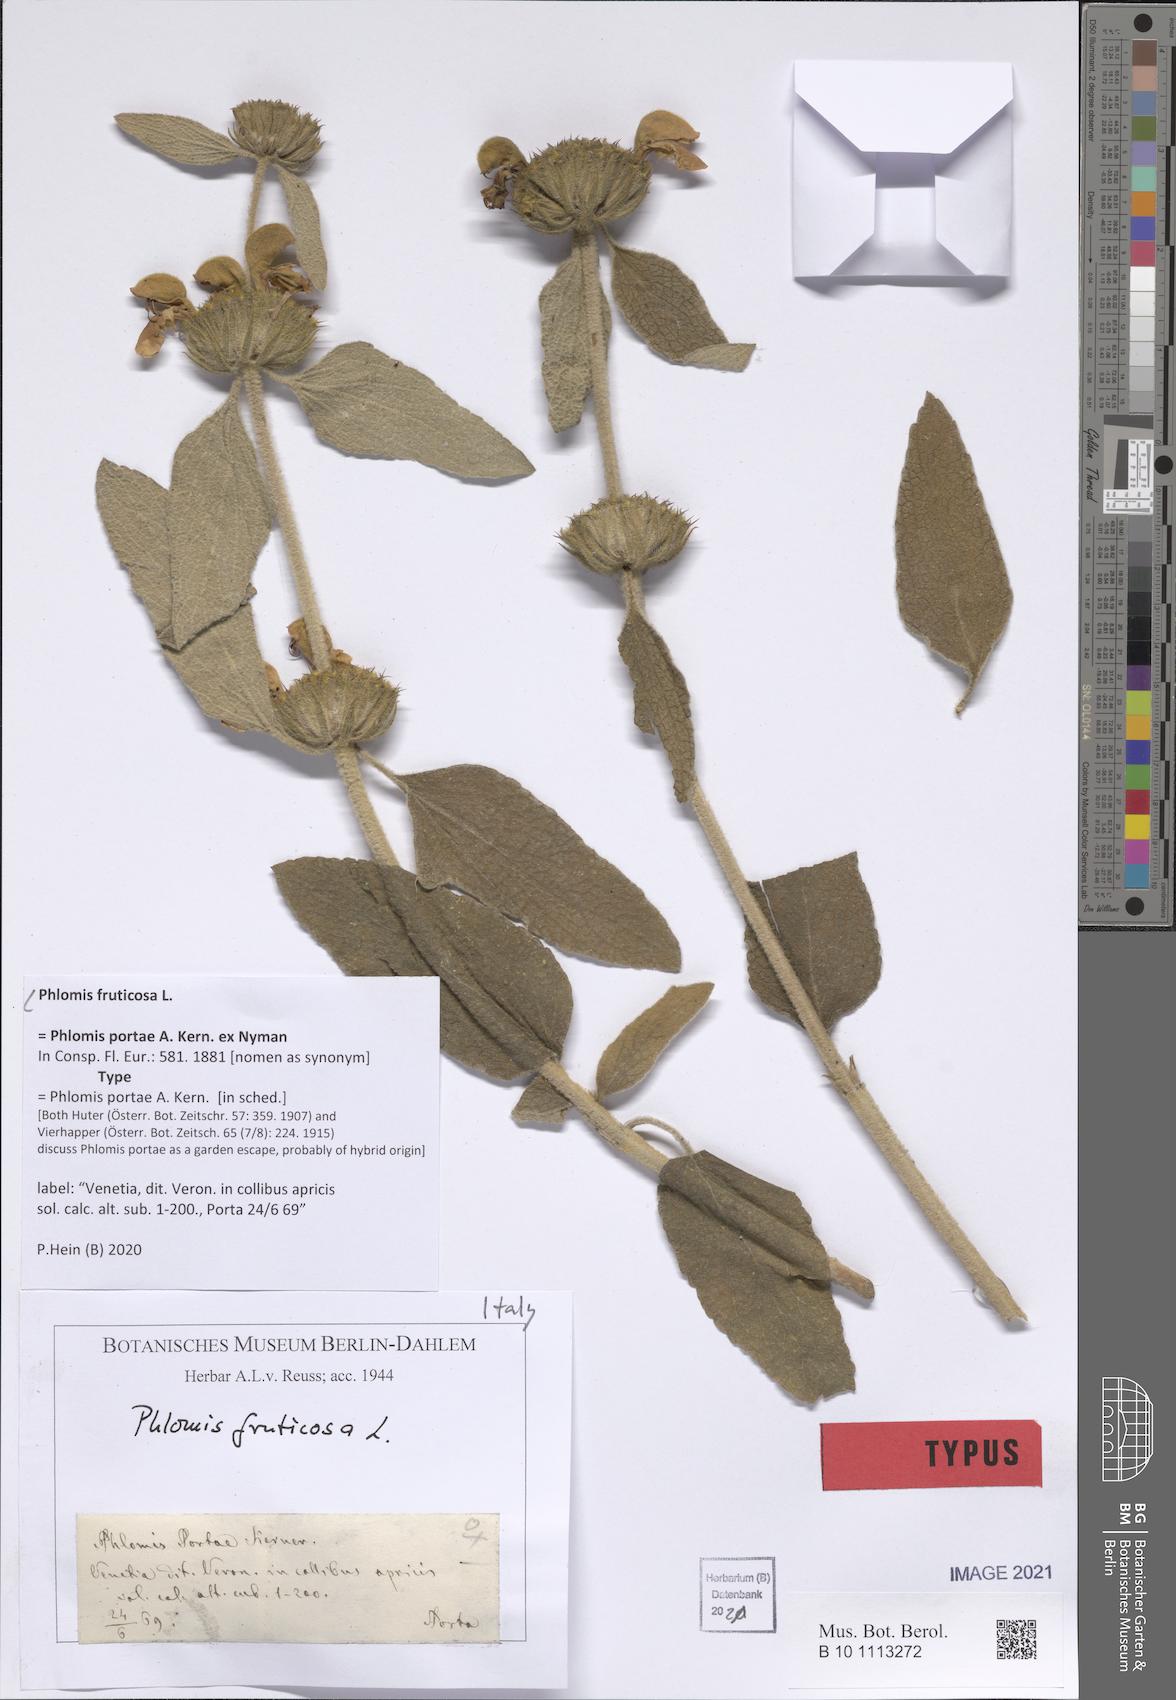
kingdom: Plantae
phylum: Tracheophyta
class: Magnoliopsida
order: Lamiales
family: Lamiaceae
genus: Phlomis
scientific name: Phlomis fruticosa
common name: Jerusalem sage
